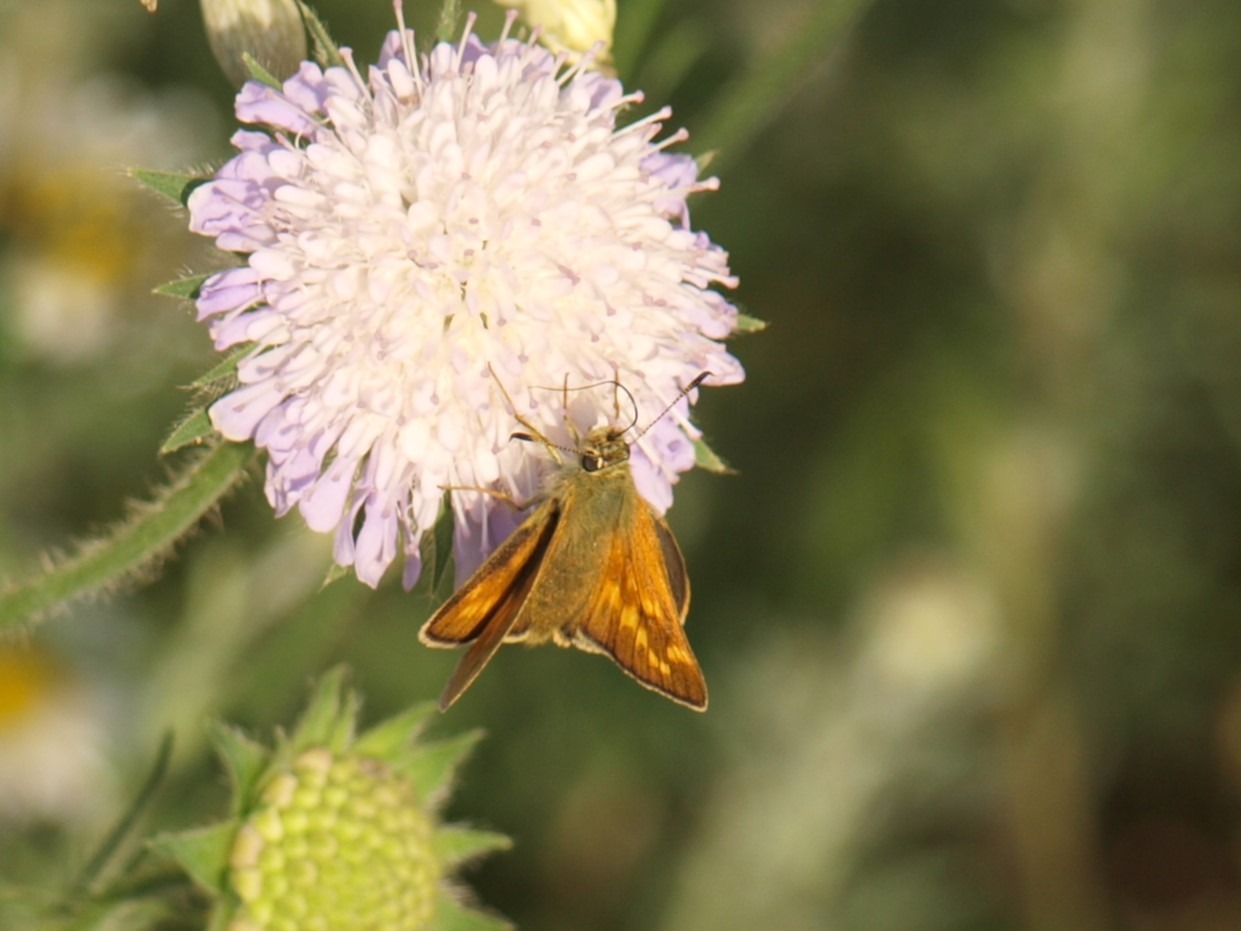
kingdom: Animalia
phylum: Arthropoda
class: Insecta
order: Lepidoptera
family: Hesperiidae
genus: Ochlodes
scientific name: Ochlodes venata
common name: Stor bredpande
